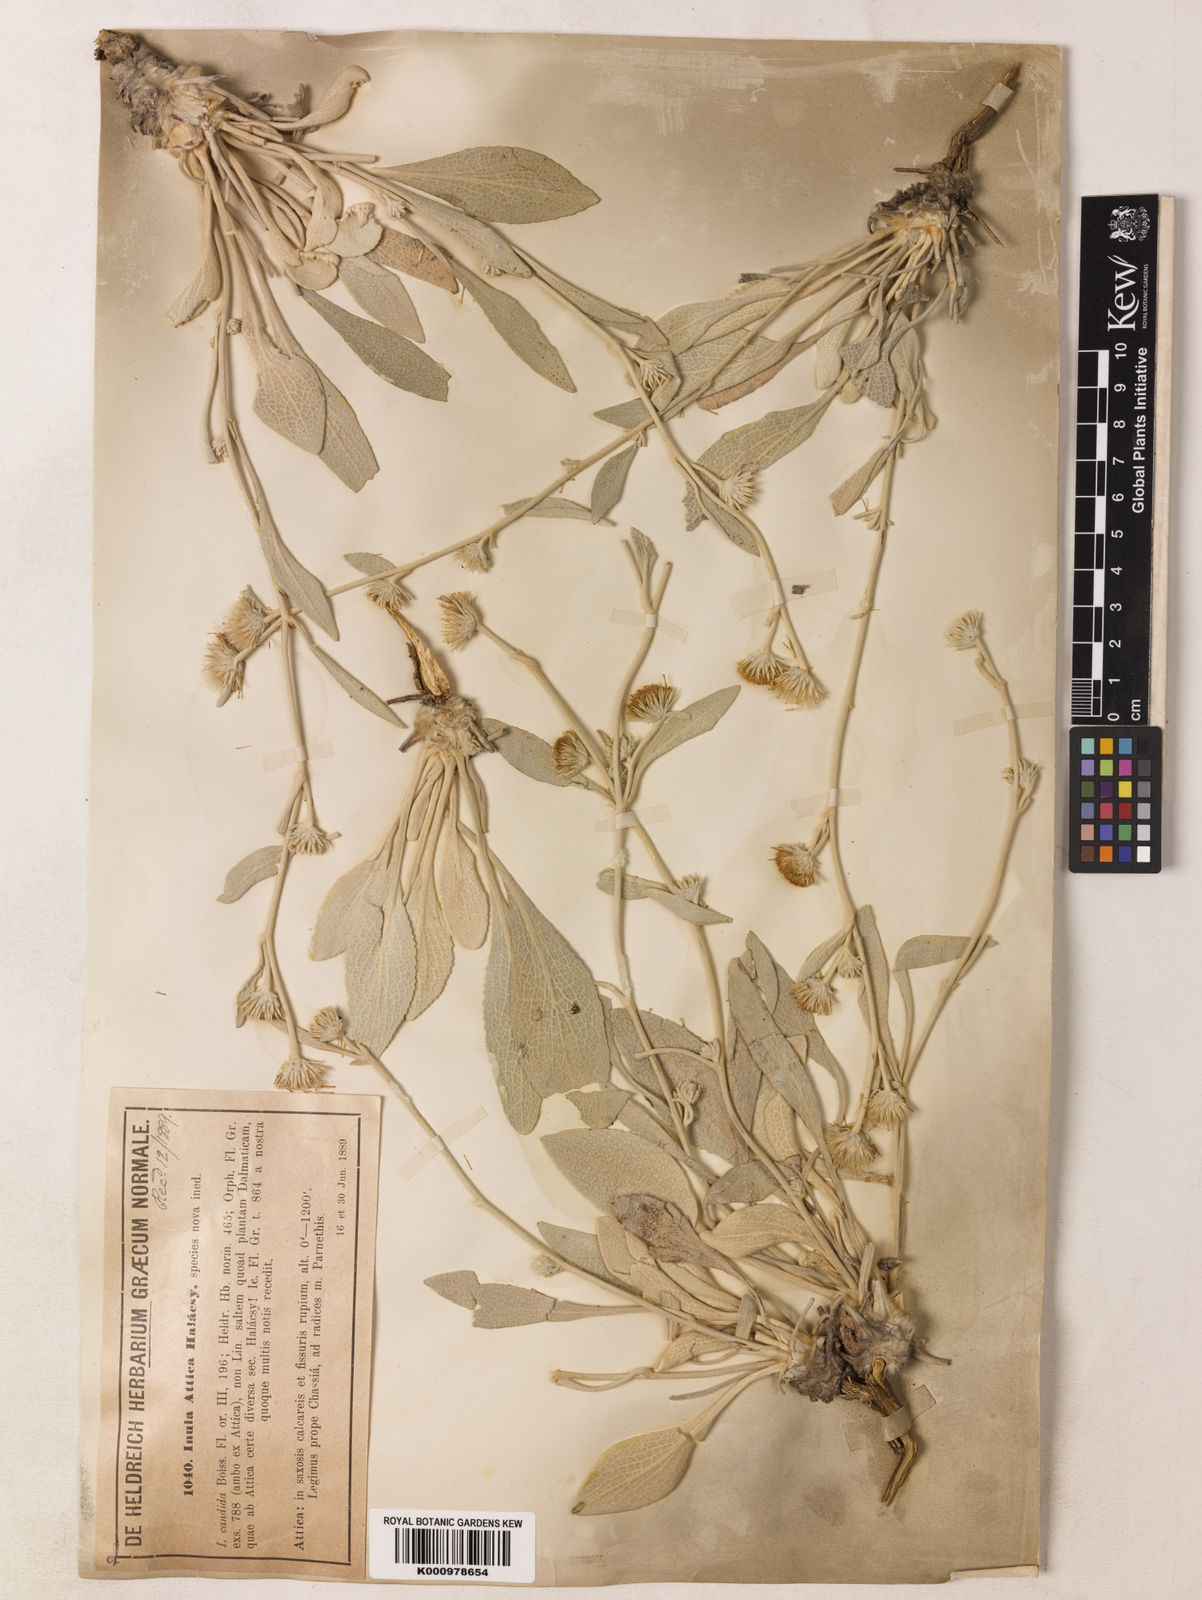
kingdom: Plantae
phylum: Tracheophyta
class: Magnoliopsida
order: Asterales
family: Asteraceae
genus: Inula
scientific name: Inula
